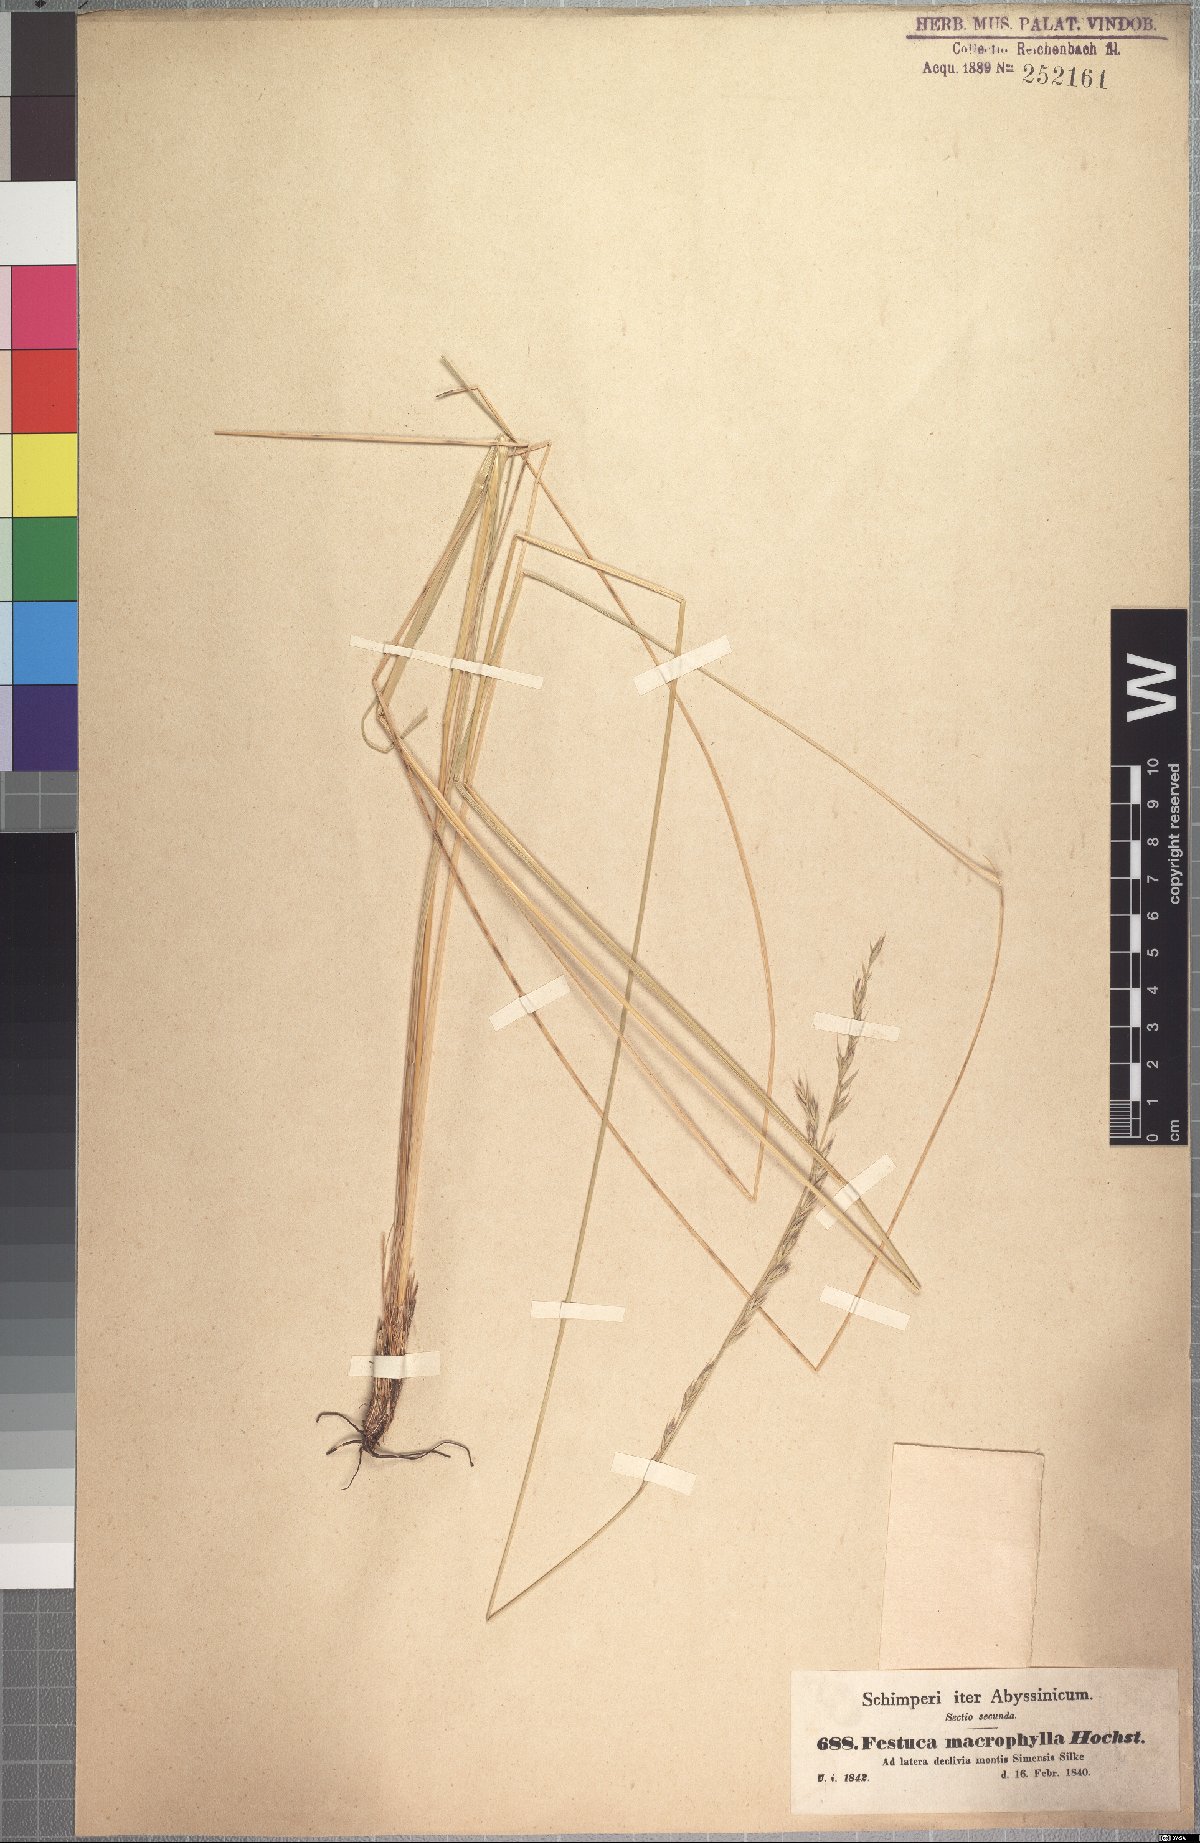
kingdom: Plantae
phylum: Tracheophyta
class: Liliopsida
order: Poales
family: Poaceae
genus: Festuca
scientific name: Festuca macrophylla
